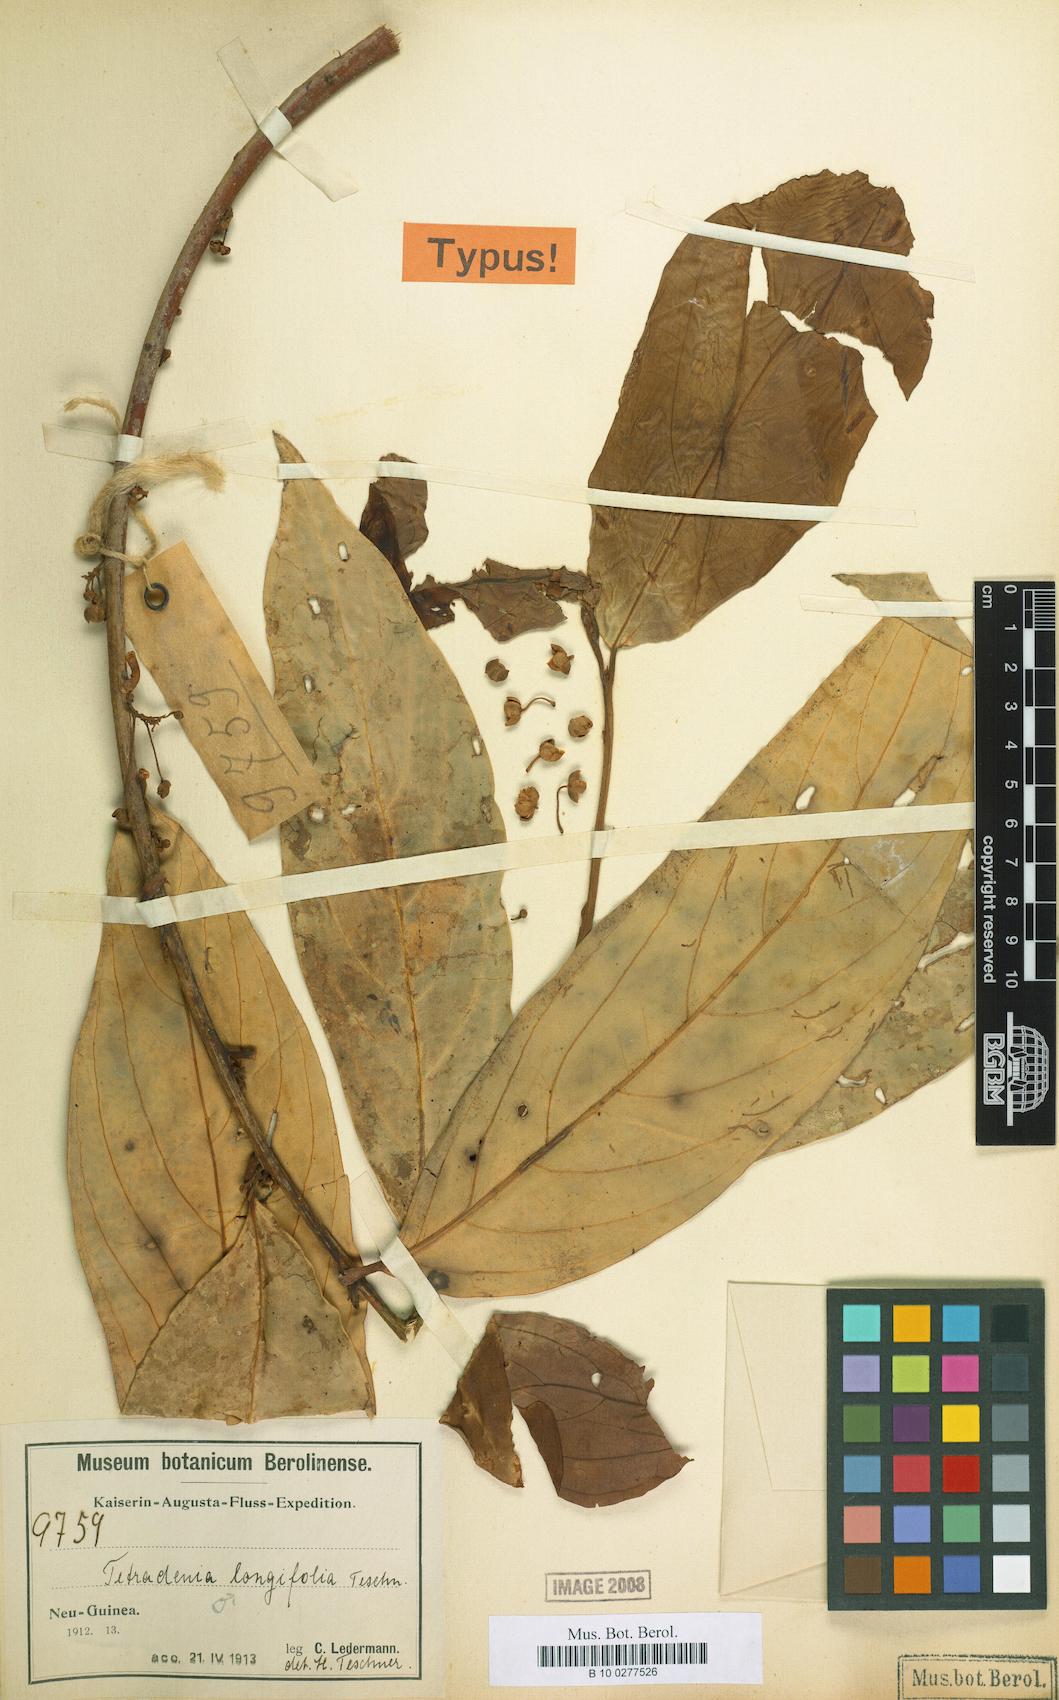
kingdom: Plantae
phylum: Tracheophyta
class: Magnoliopsida
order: Laurales
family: Lauraceae
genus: Neolitsea
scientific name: Neolitsea longifolia
